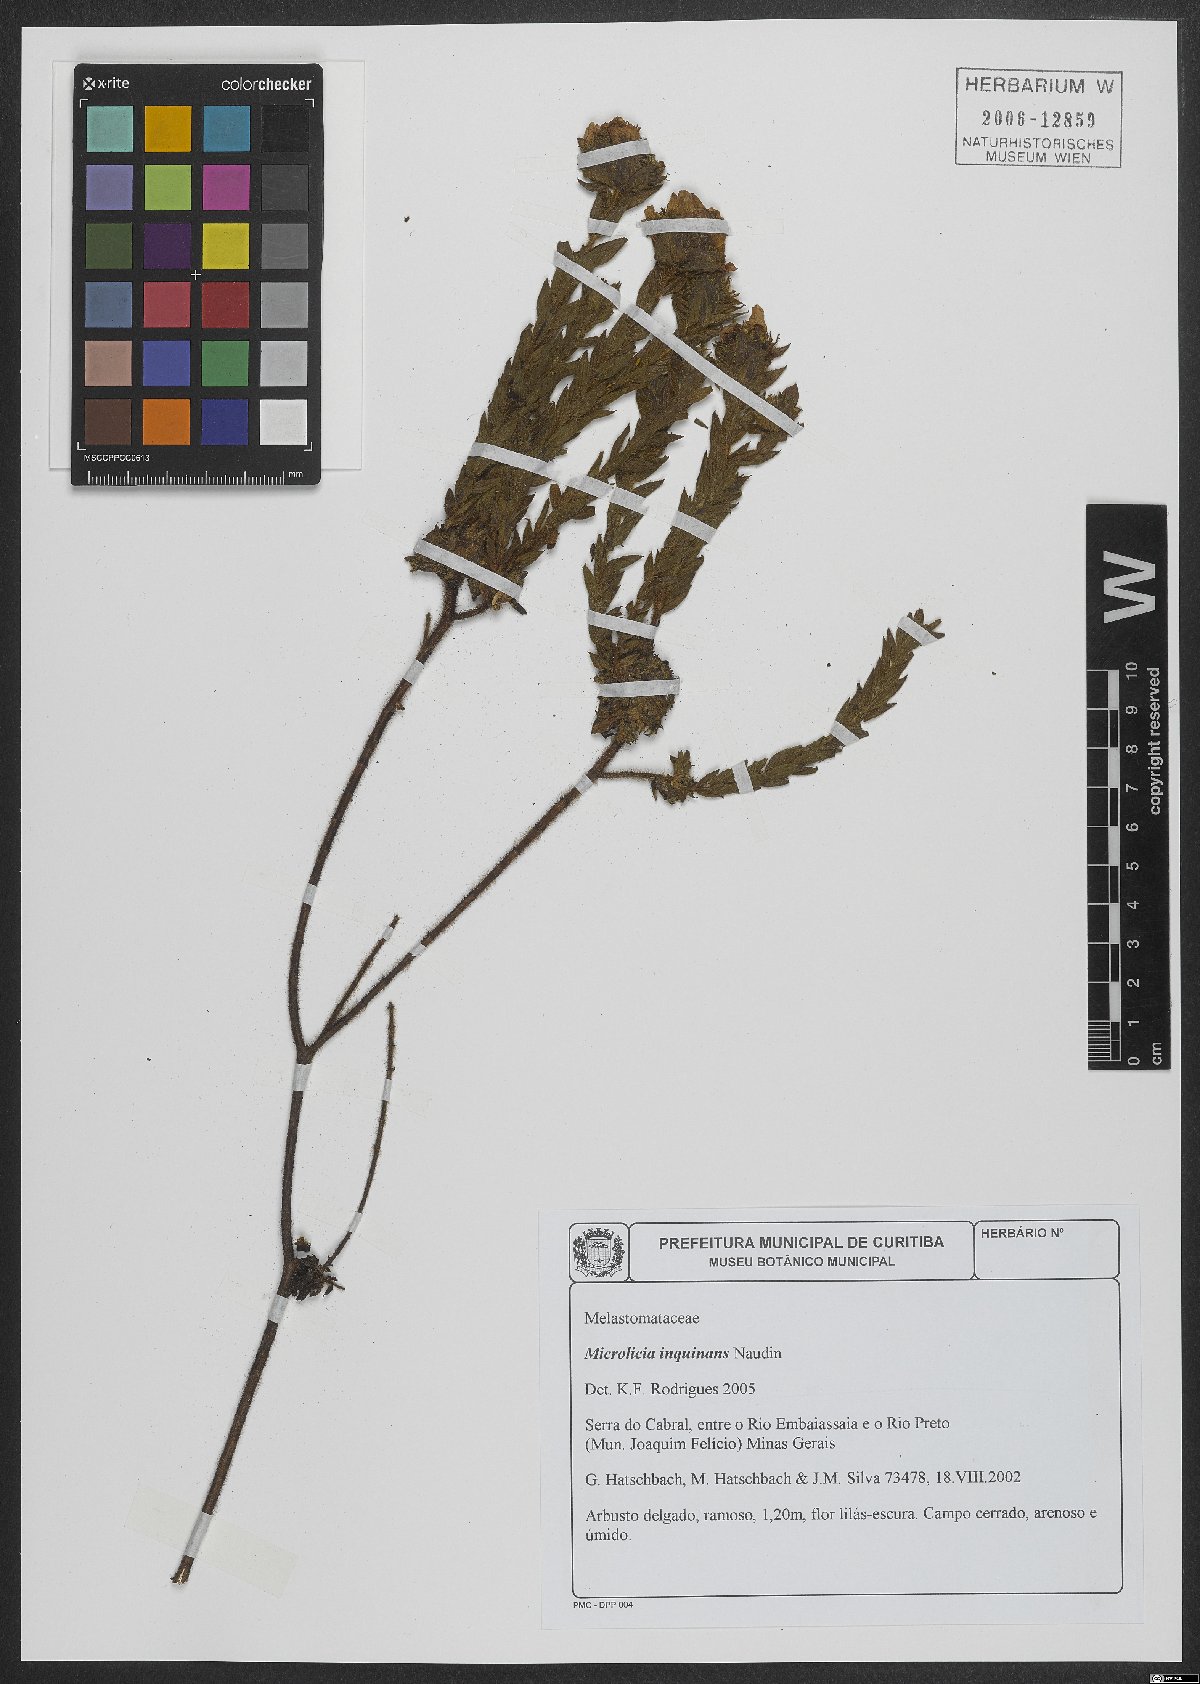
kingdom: Plantae
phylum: Tracheophyta
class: Magnoliopsida
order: Myrtales
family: Melastomataceae
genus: Microlicia
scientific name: Microlicia inquinans
